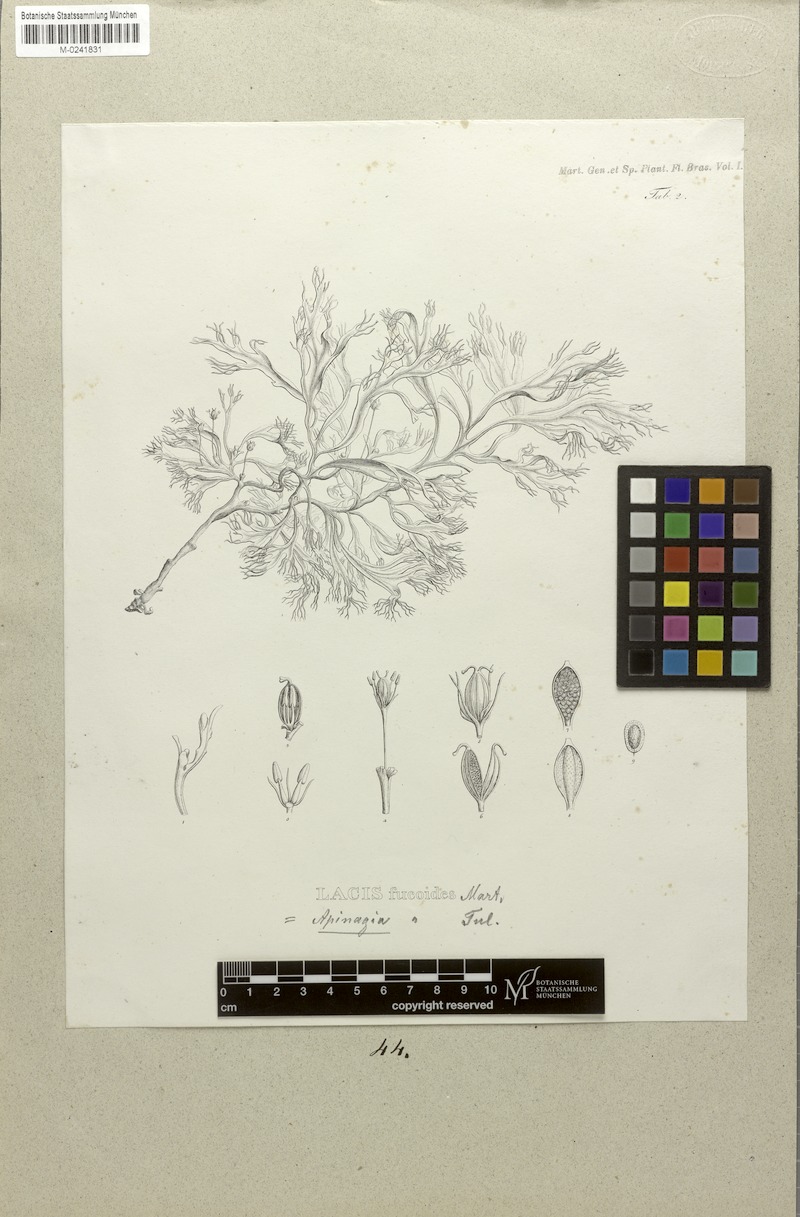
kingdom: Plantae
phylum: Tracheophyta
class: Magnoliopsida
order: Malpighiales
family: Podostemaceae
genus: Apinagia
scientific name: Apinagia fucoides
